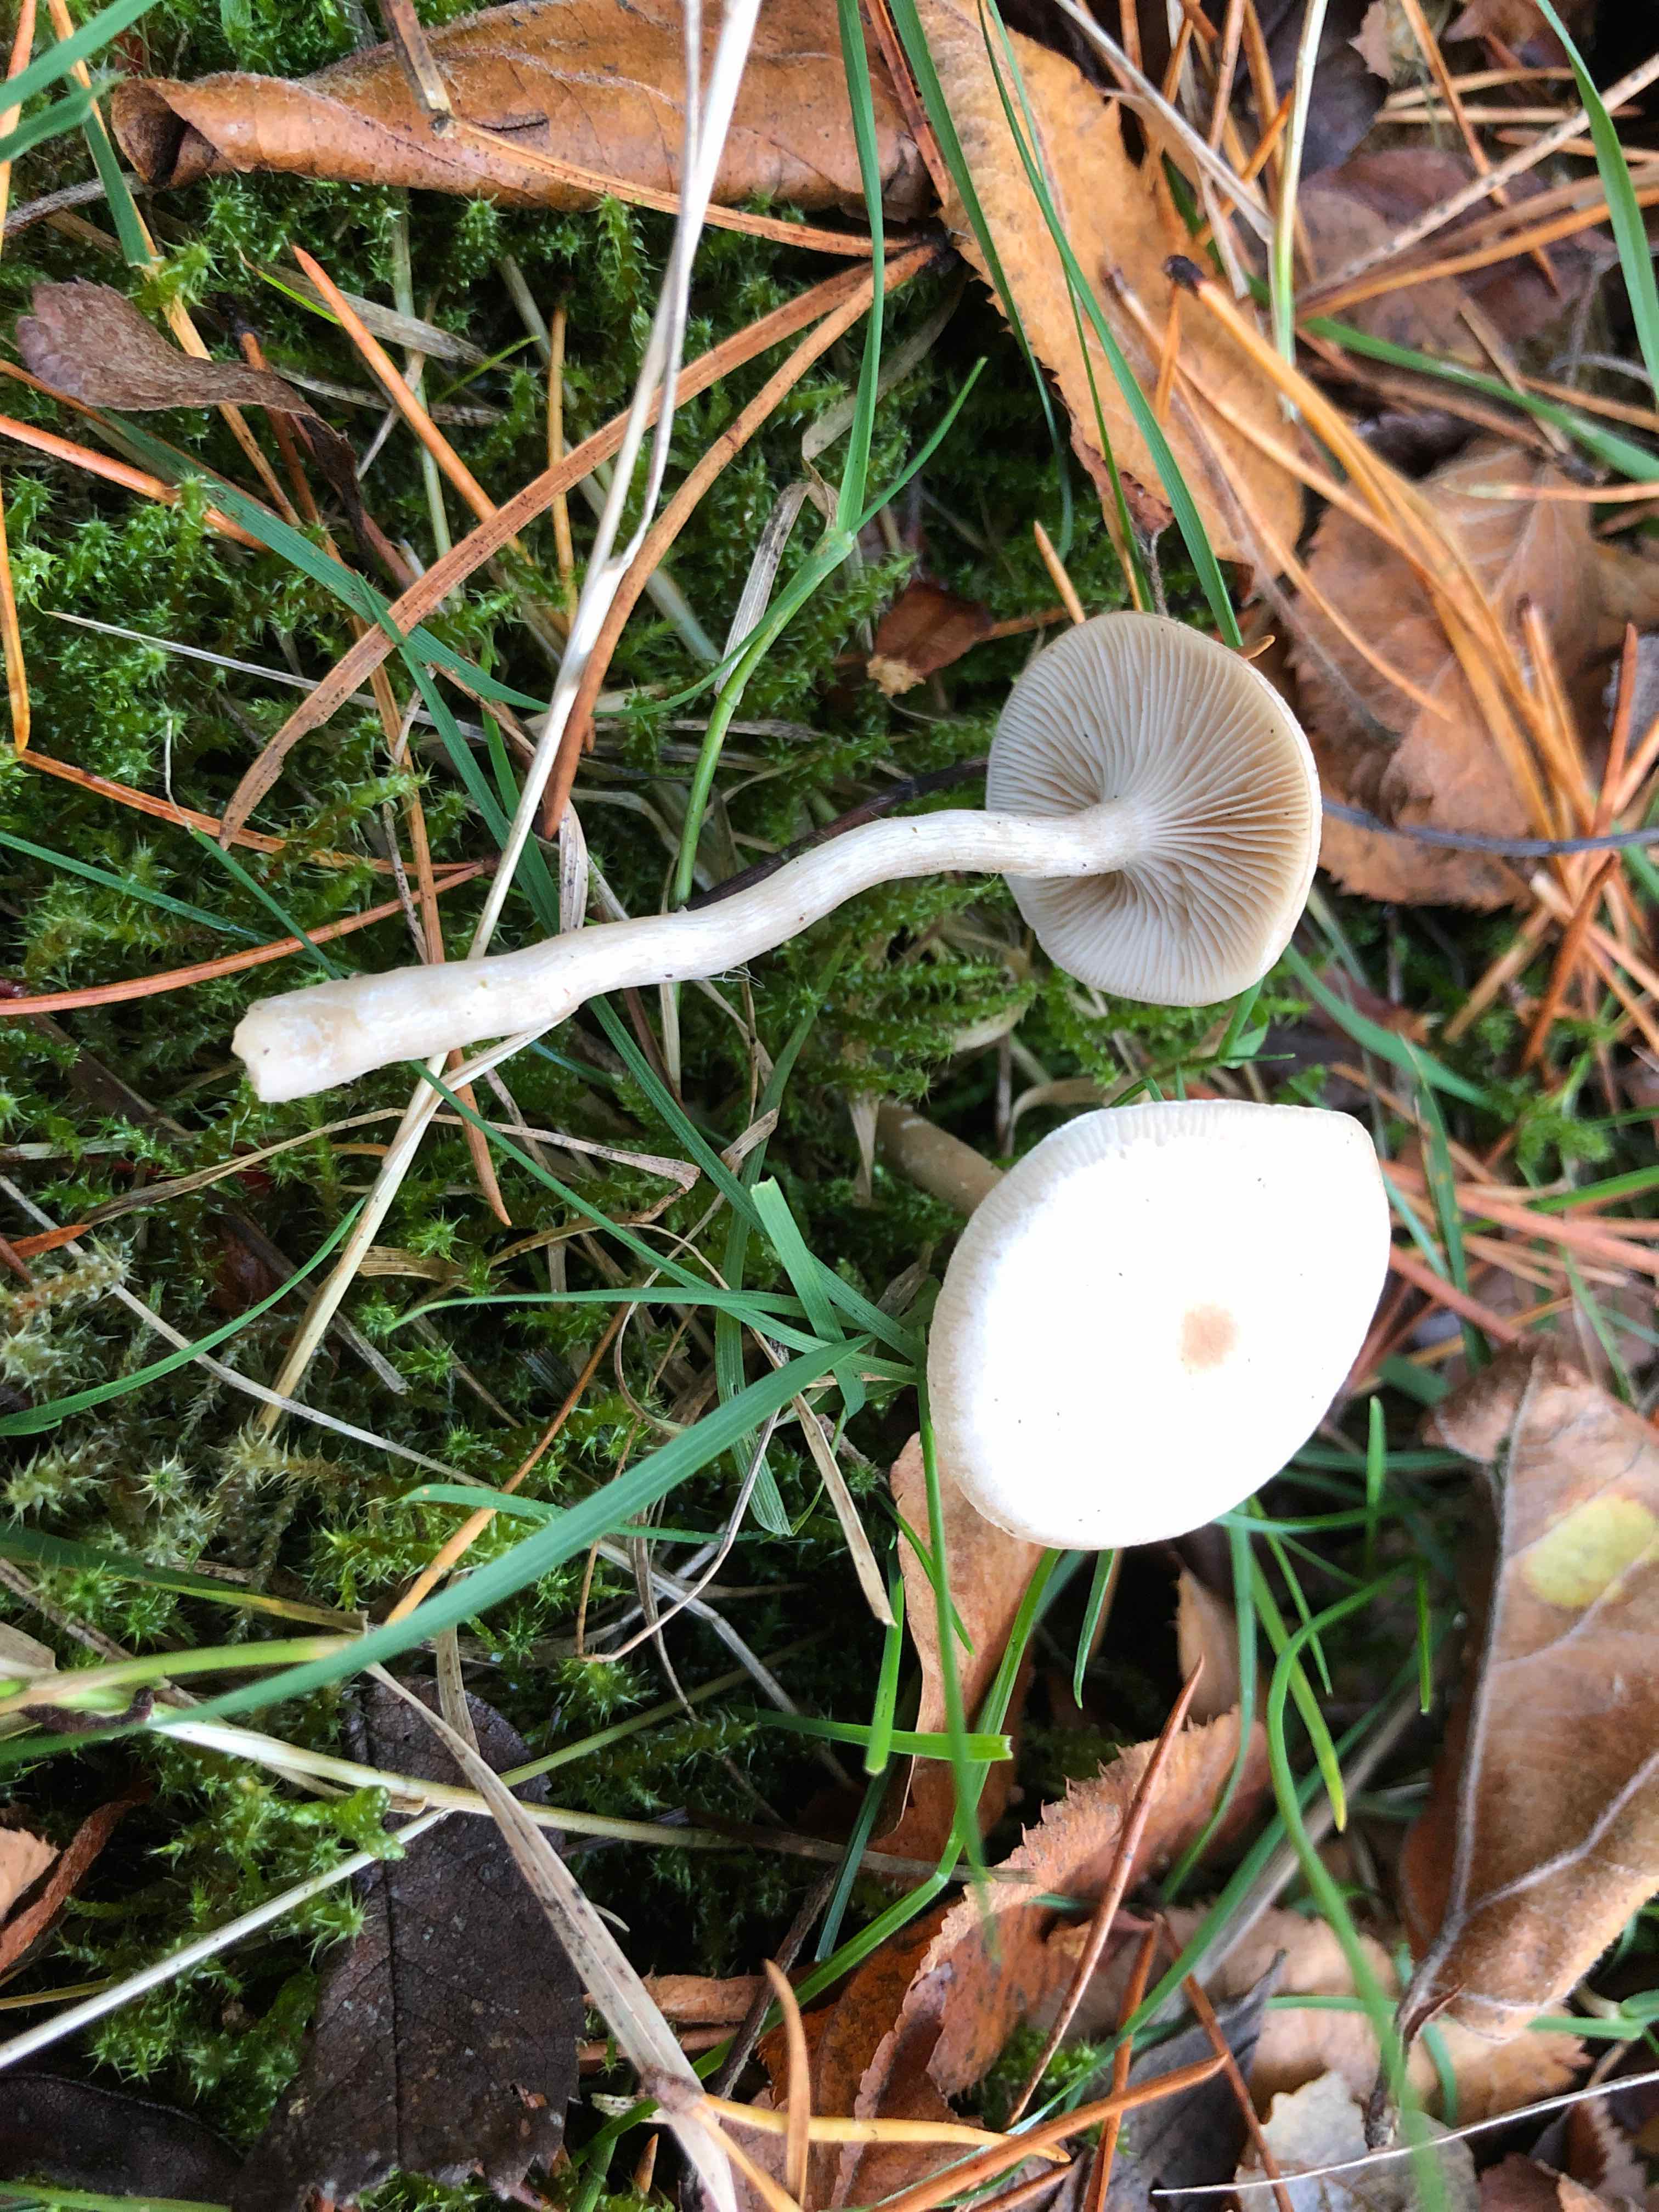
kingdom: Fungi
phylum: Basidiomycota
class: Agaricomycetes
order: Agaricales
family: Tricholomataceae
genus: Clitocybe
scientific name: Clitocybe fragrans
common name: vellugtende tragthat
